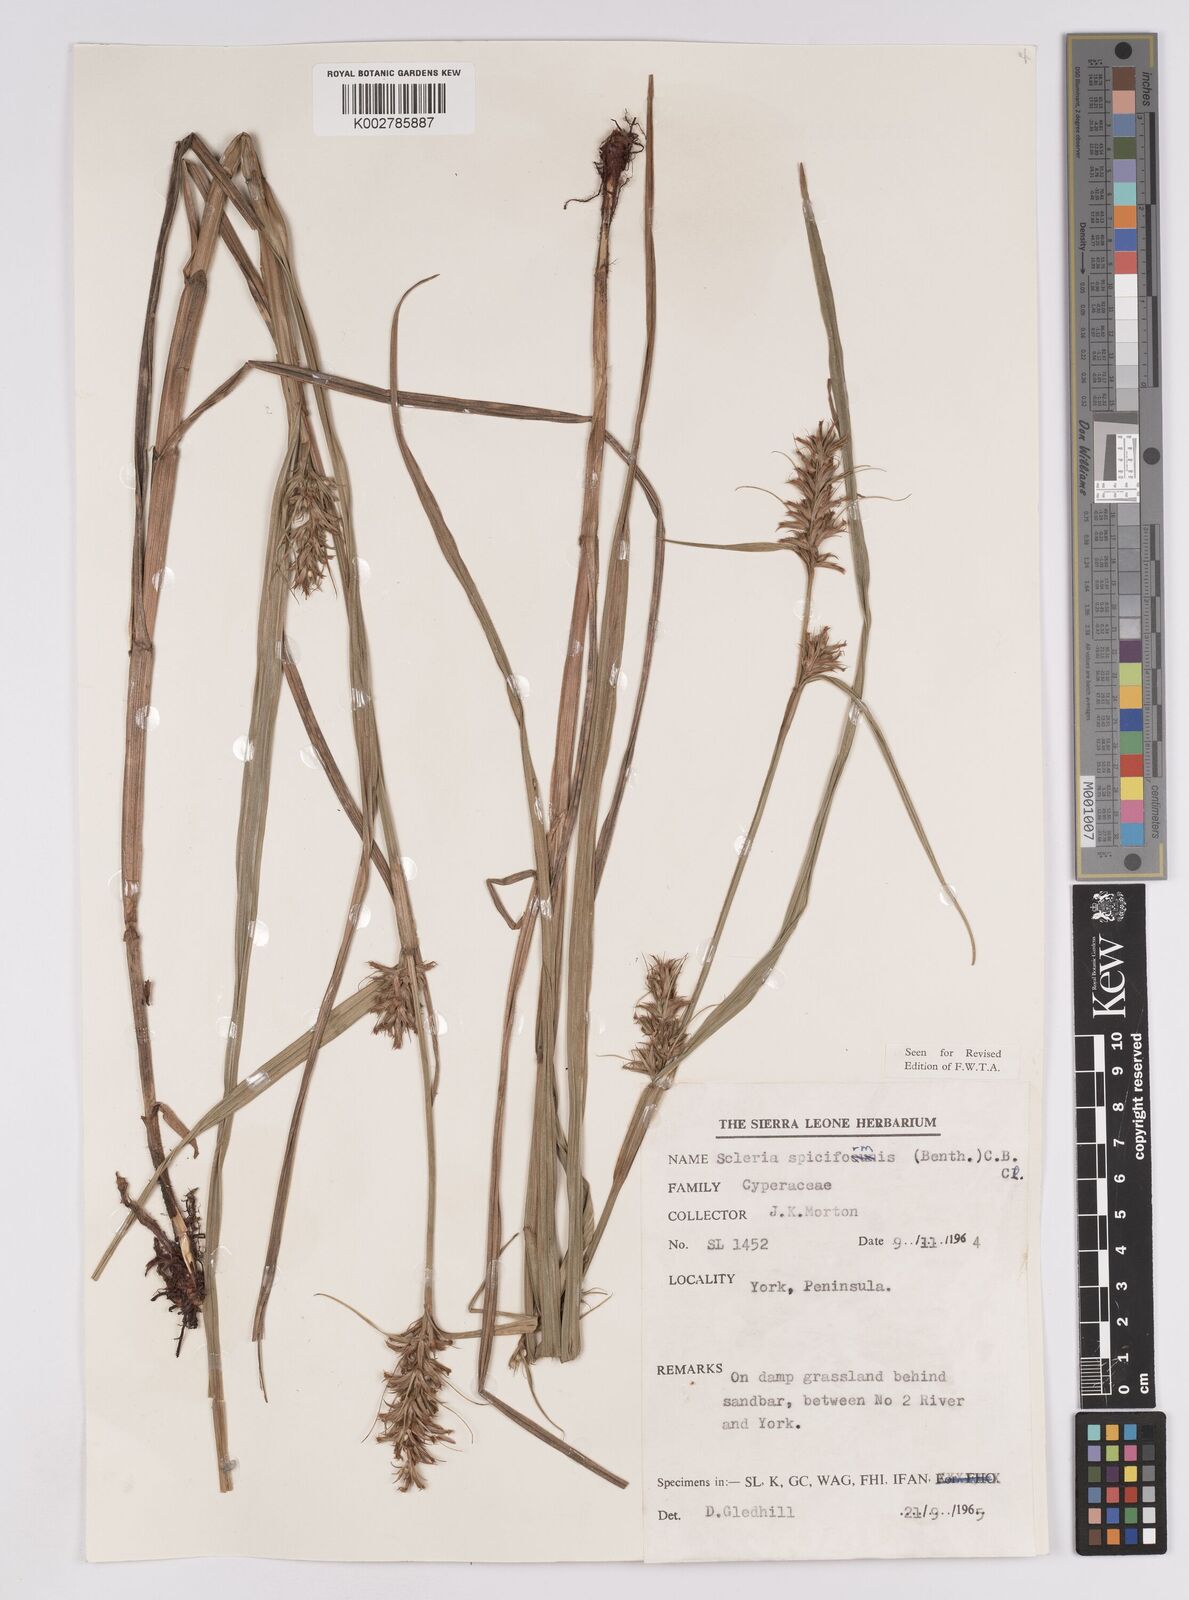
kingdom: Plantae
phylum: Tracheophyta
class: Liliopsida
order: Poales
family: Cyperaceae
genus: Scleria
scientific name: Scleria spiciformis
